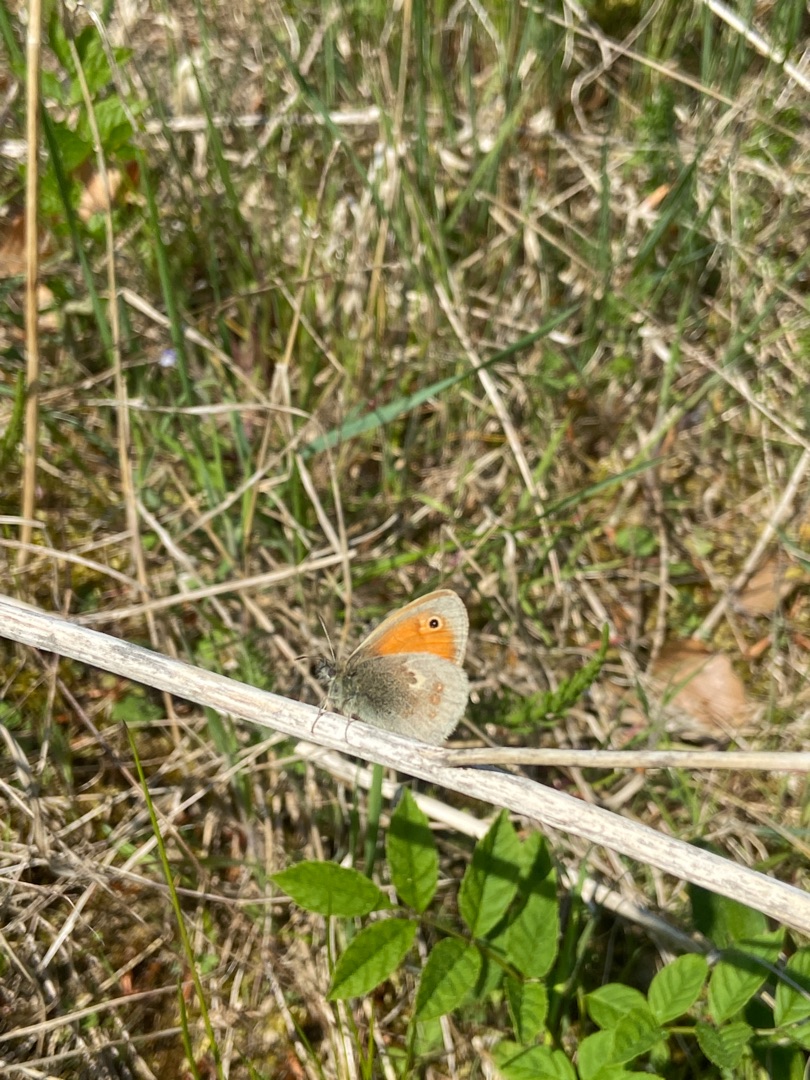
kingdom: Animalia
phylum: Arthropoda
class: Insecta
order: Lepidoptera
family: Nymphalidae
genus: Coenonympha
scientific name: Coenonympha pamphilus
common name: Okkergul randøje
